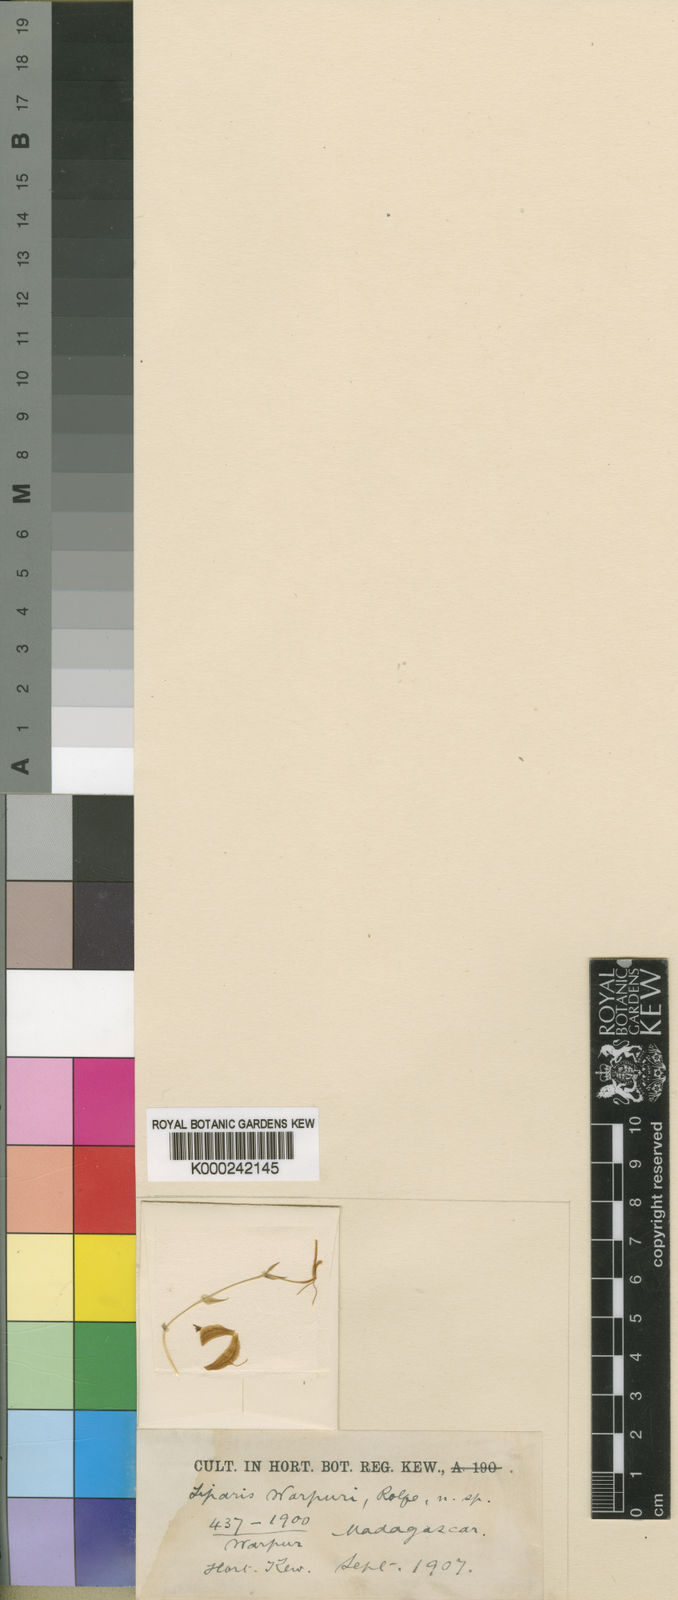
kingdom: Plantae
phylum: Tracheophyta
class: Liliopsida
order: Asparagales
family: Orchidaceae
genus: Liparis
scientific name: Liparis warpurii
